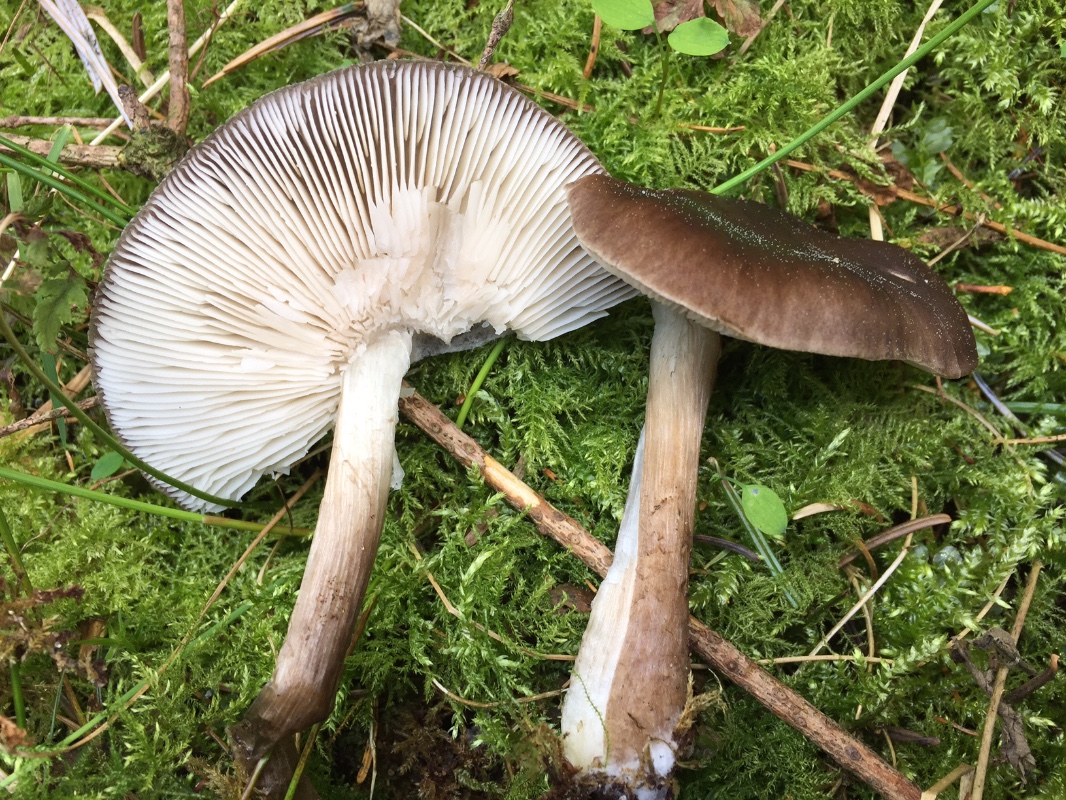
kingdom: Fungi
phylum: Basidiomycota
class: Agaricomycetes
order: Agaricales
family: Pluteaceae
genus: Pluteus
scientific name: Pluteus cervinus
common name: sodfarvet skærmhat
